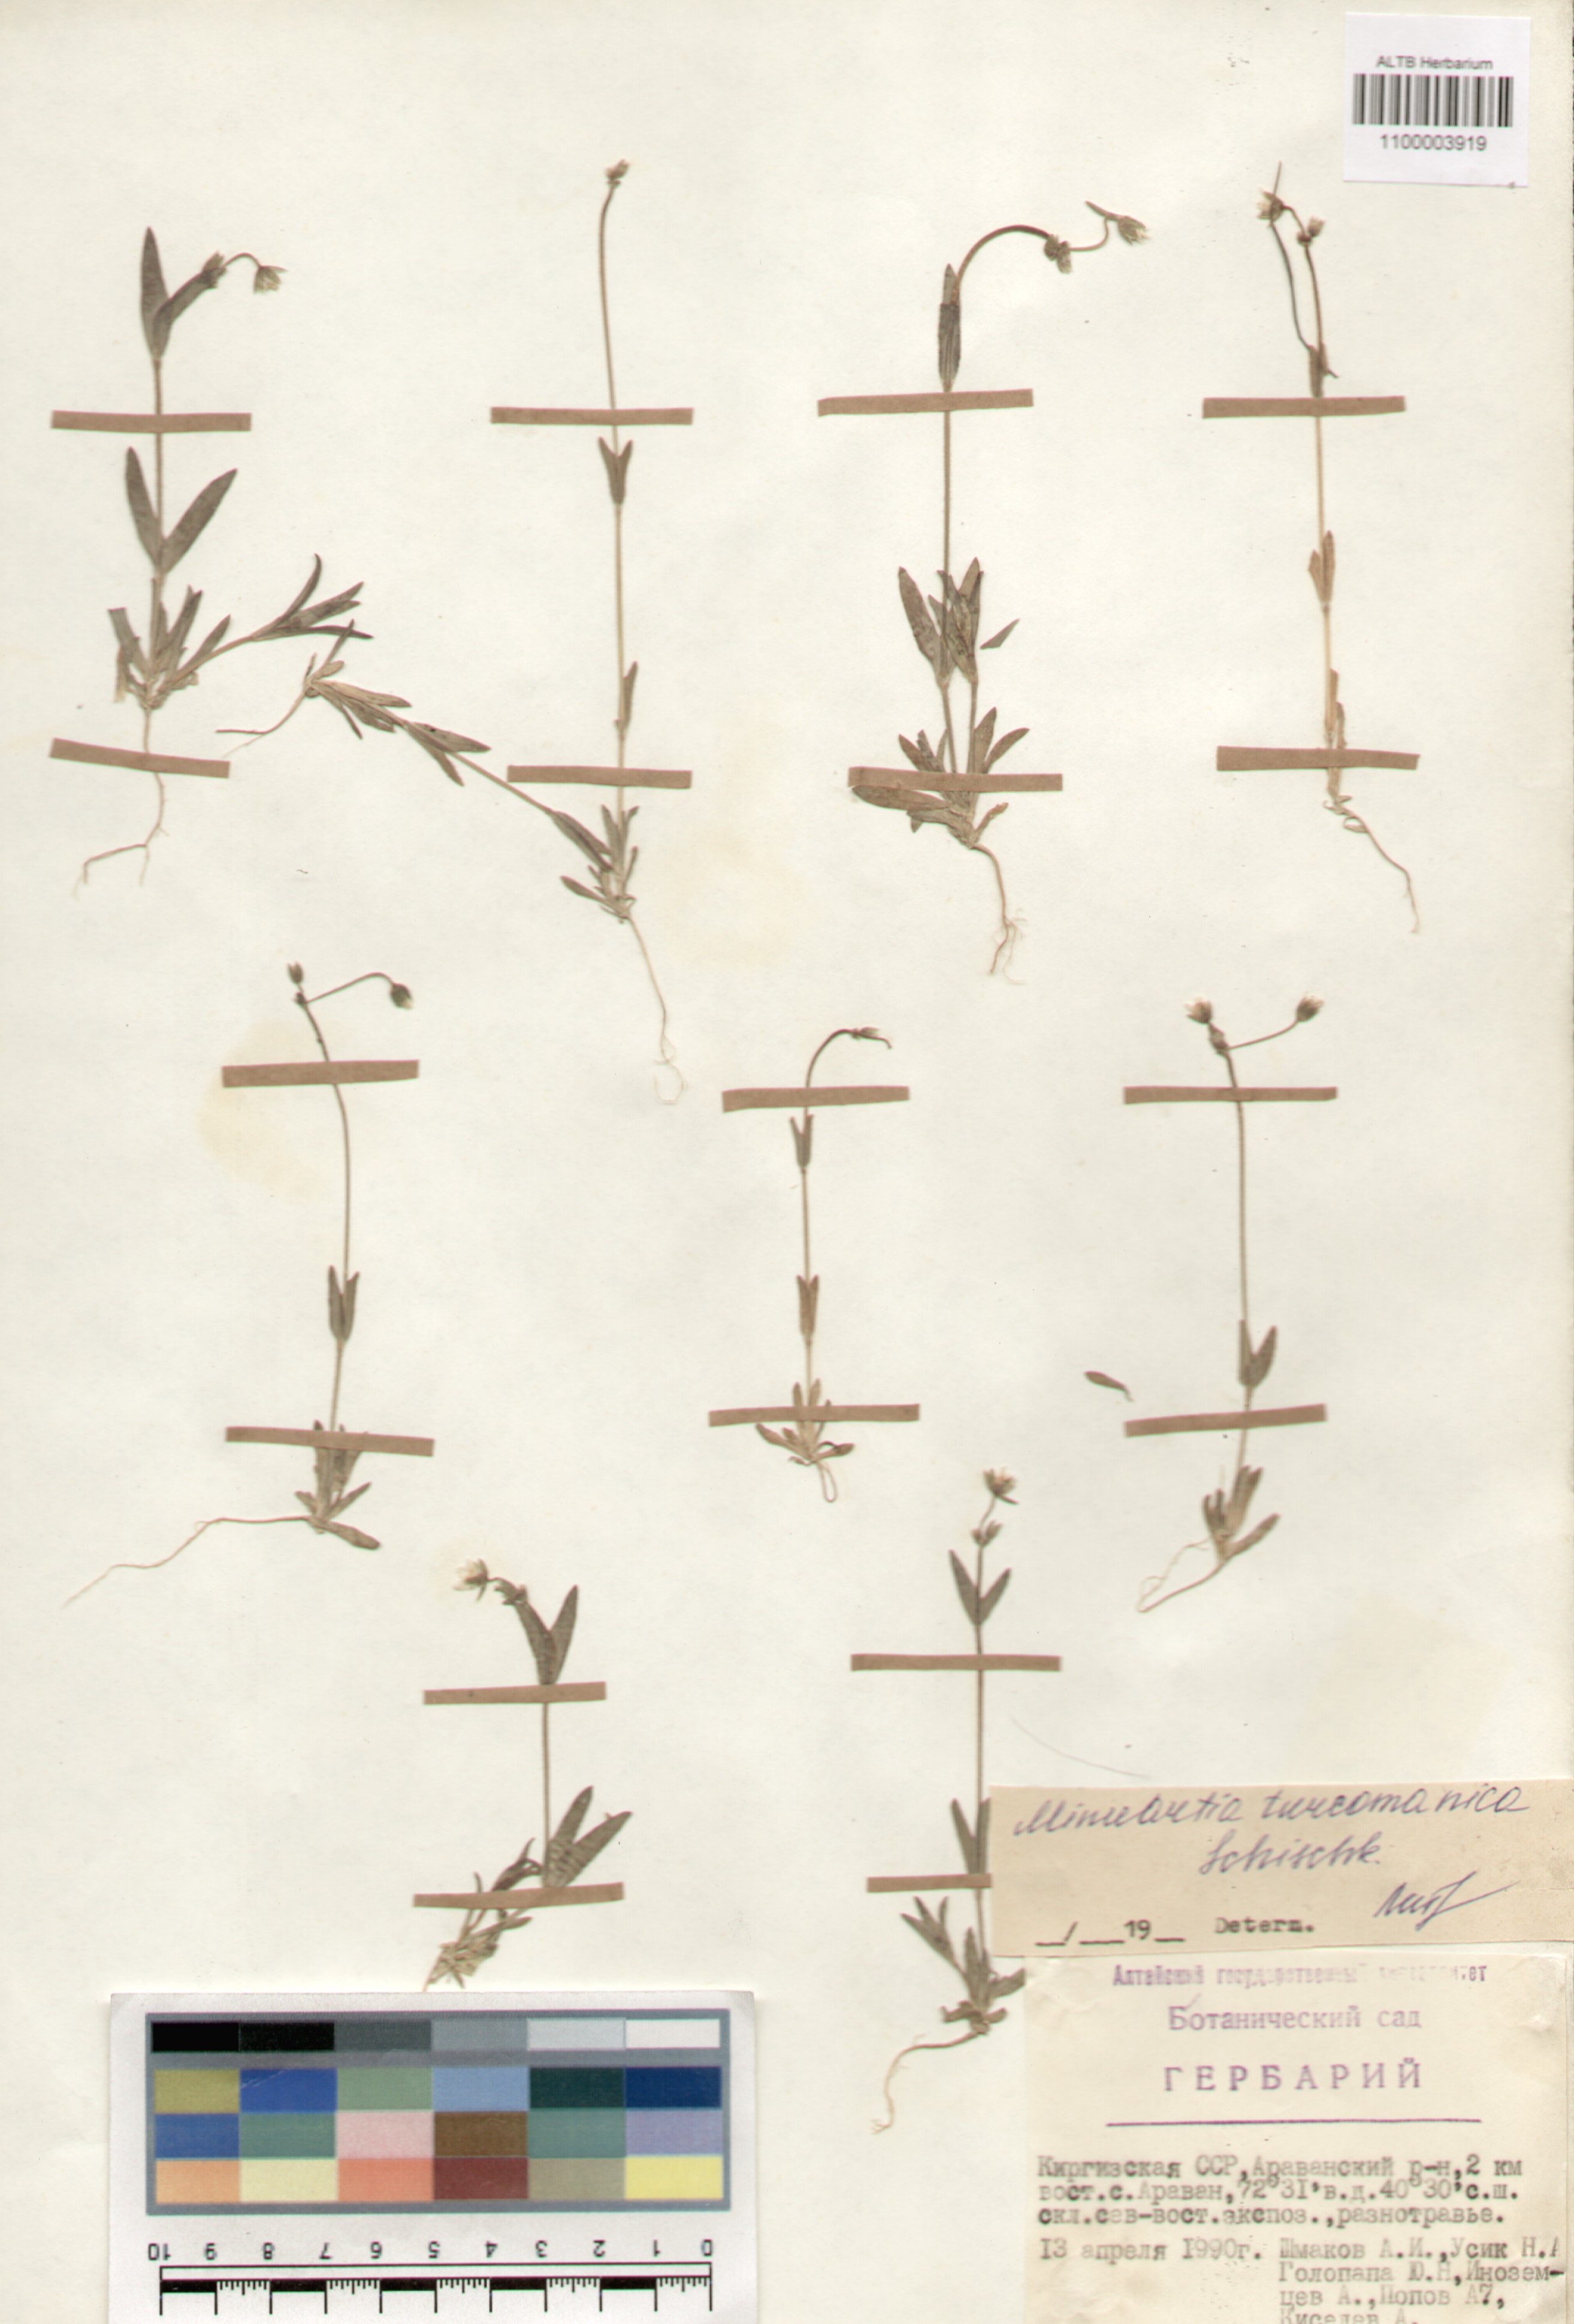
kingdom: Plantae
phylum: Tracheophyta
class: Magnoliopsida
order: Caryophyllales
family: Caryophyllaceae
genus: Sabulina
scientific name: Sabulina turcomanica
